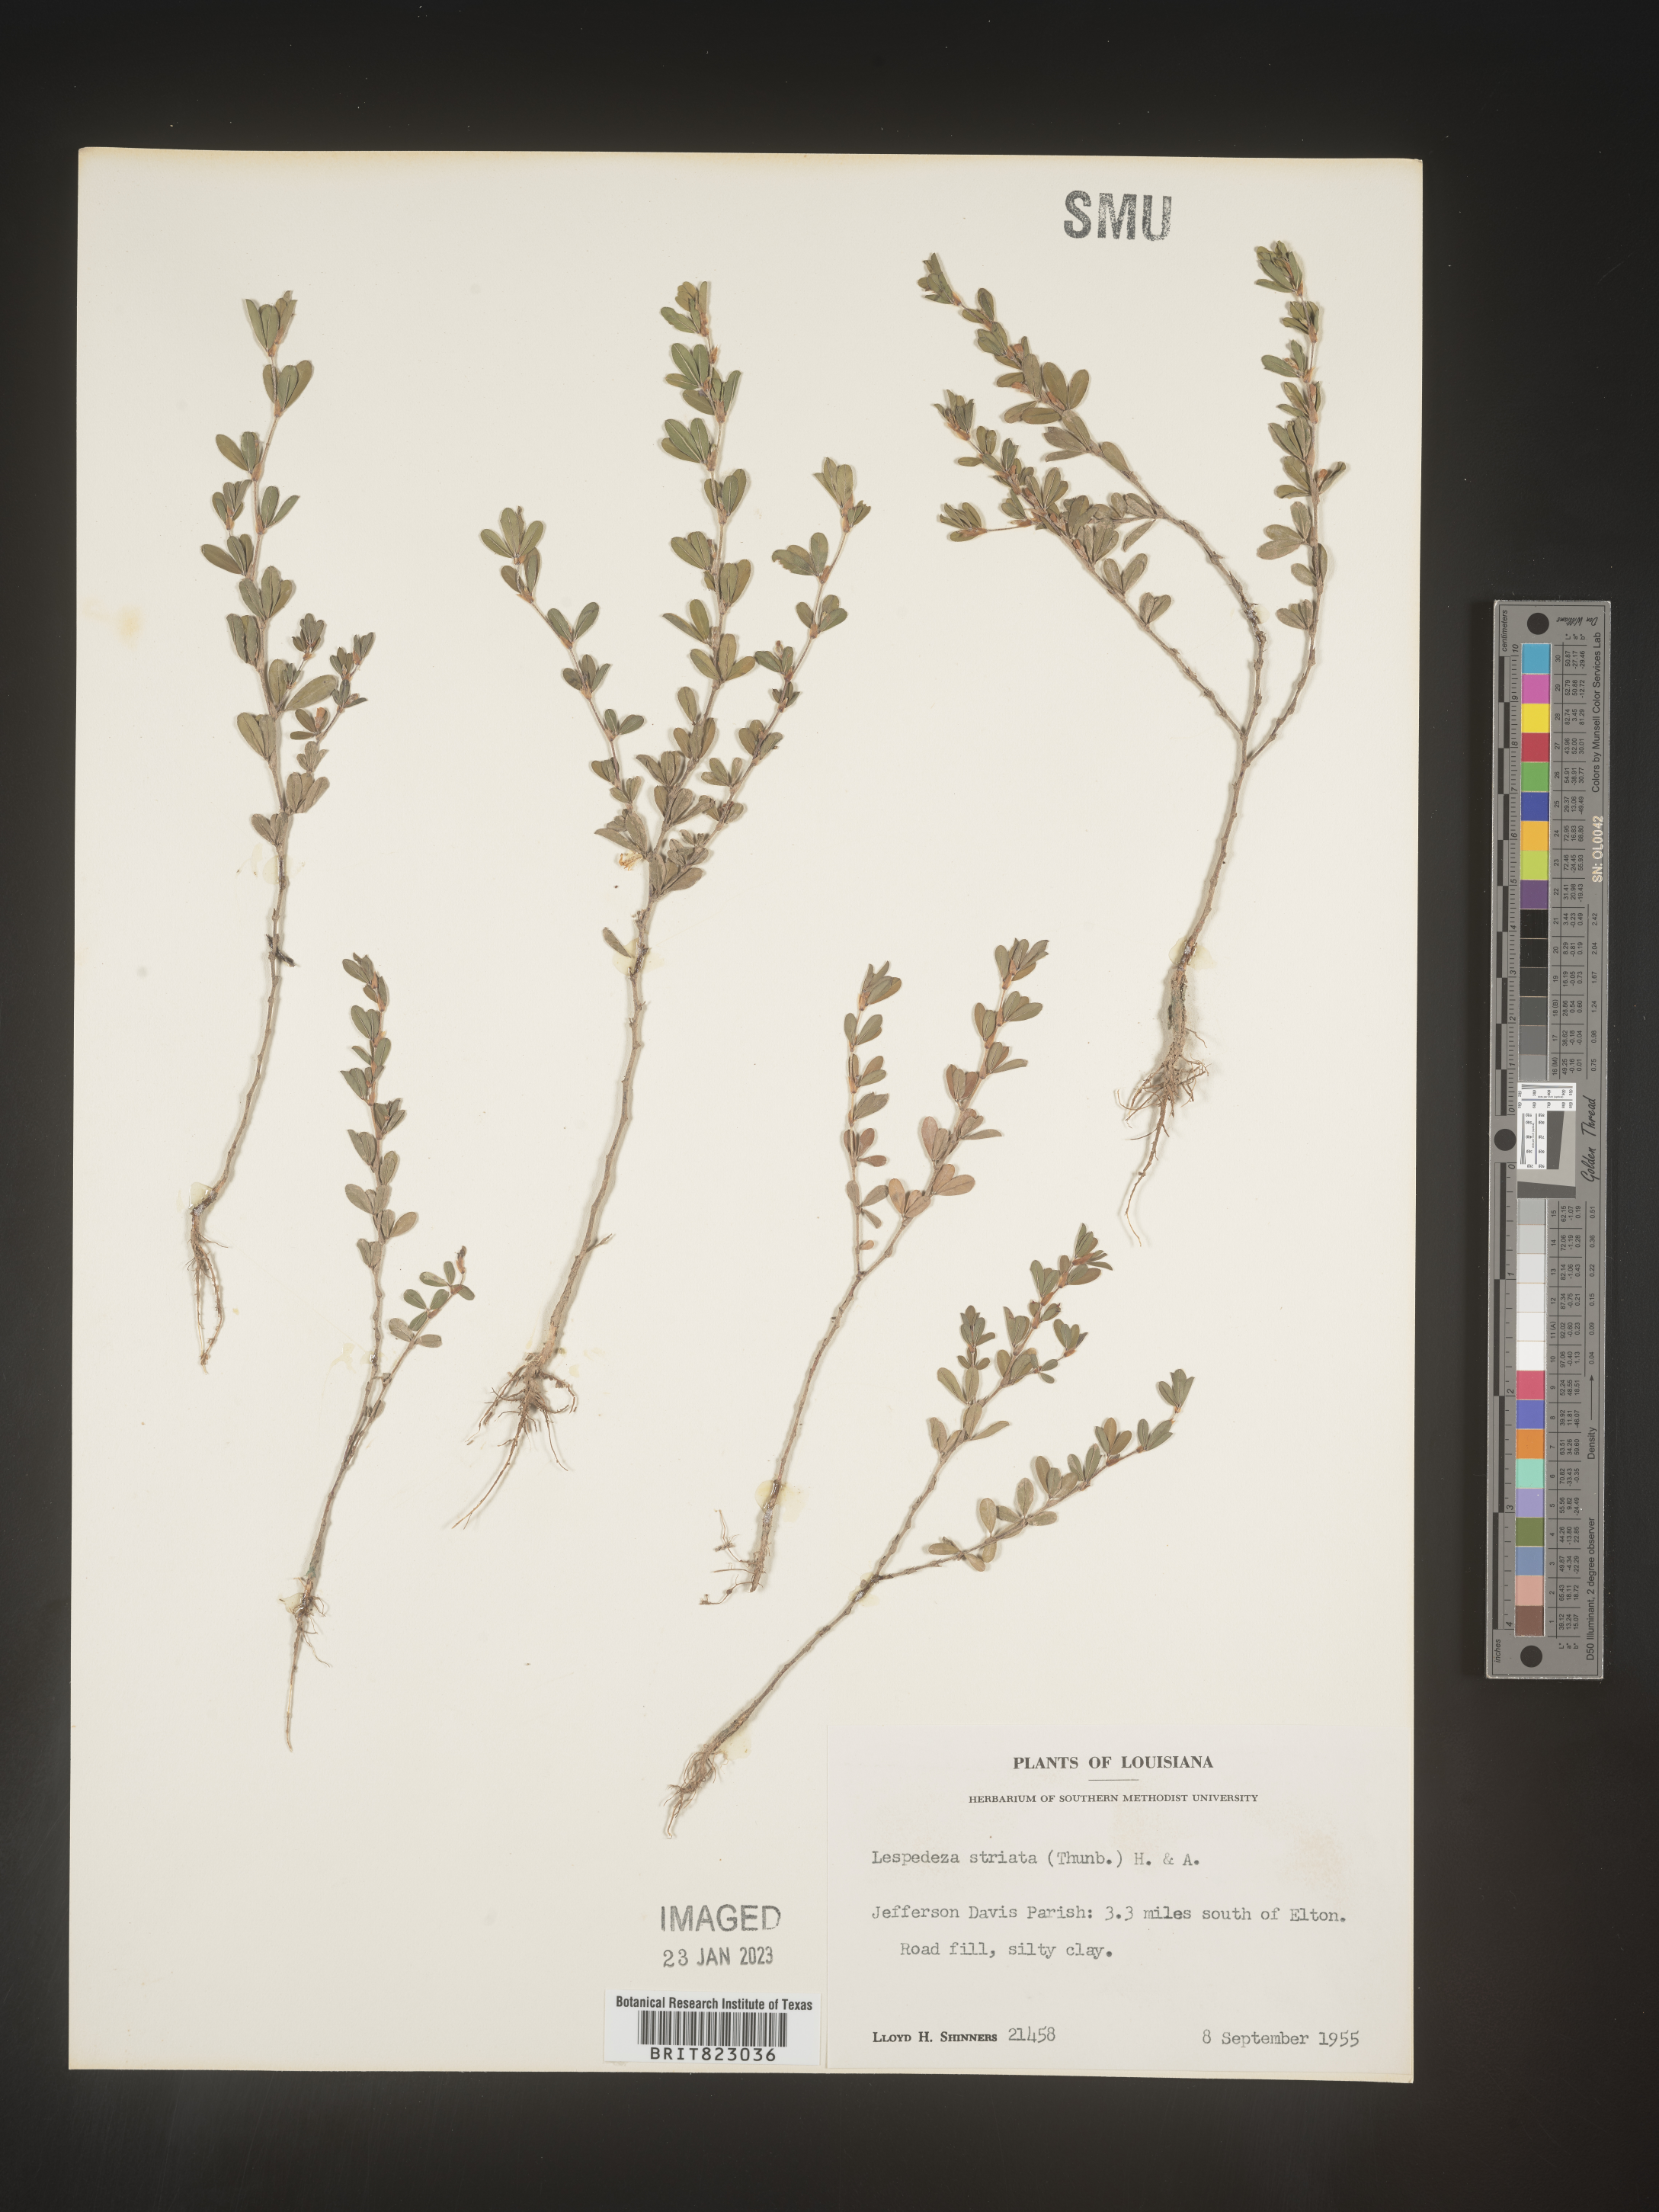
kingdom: Plantae
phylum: Tracheophyta
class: Magnoliopsida
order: Fabales
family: Fabaceae
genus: Kummerowia
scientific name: Kummerowia striata
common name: Japanese clover
